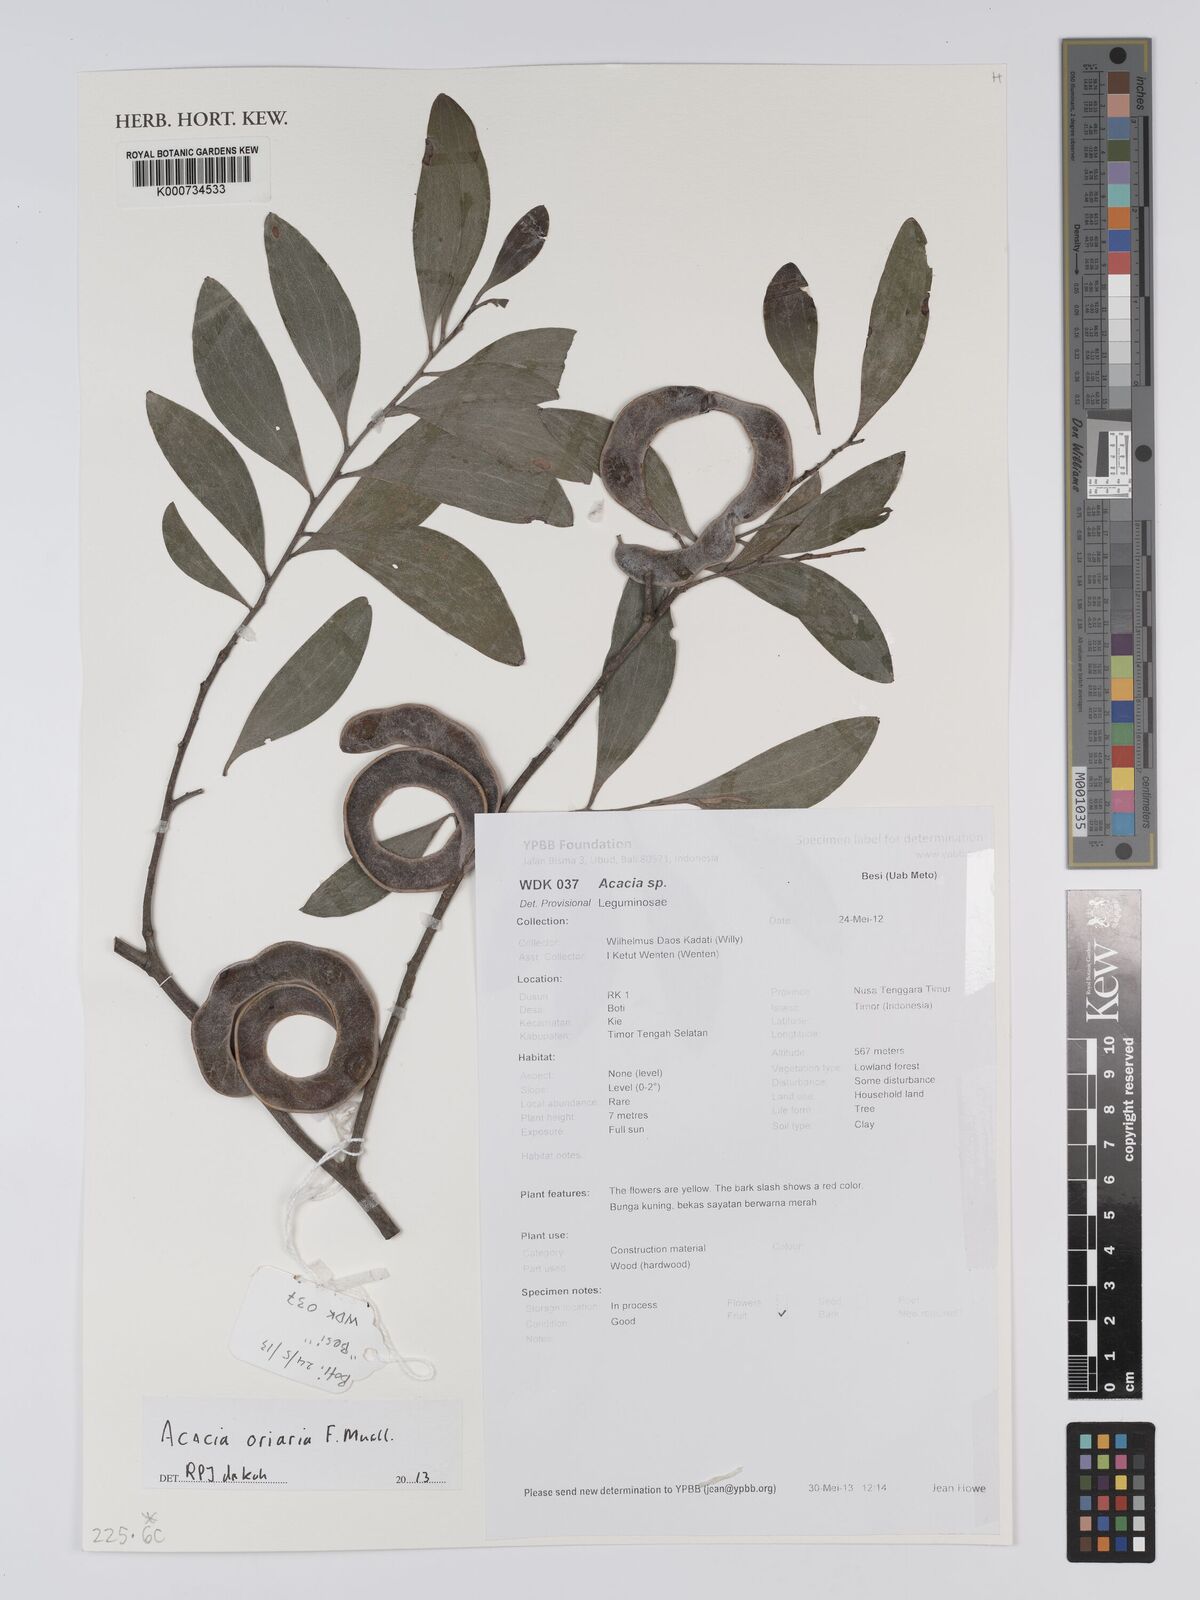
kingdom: Plantae
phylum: Tracheophyta
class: Magnoliopsida
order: Fabales
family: Fabaceae
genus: Acacia
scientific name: Acacia
